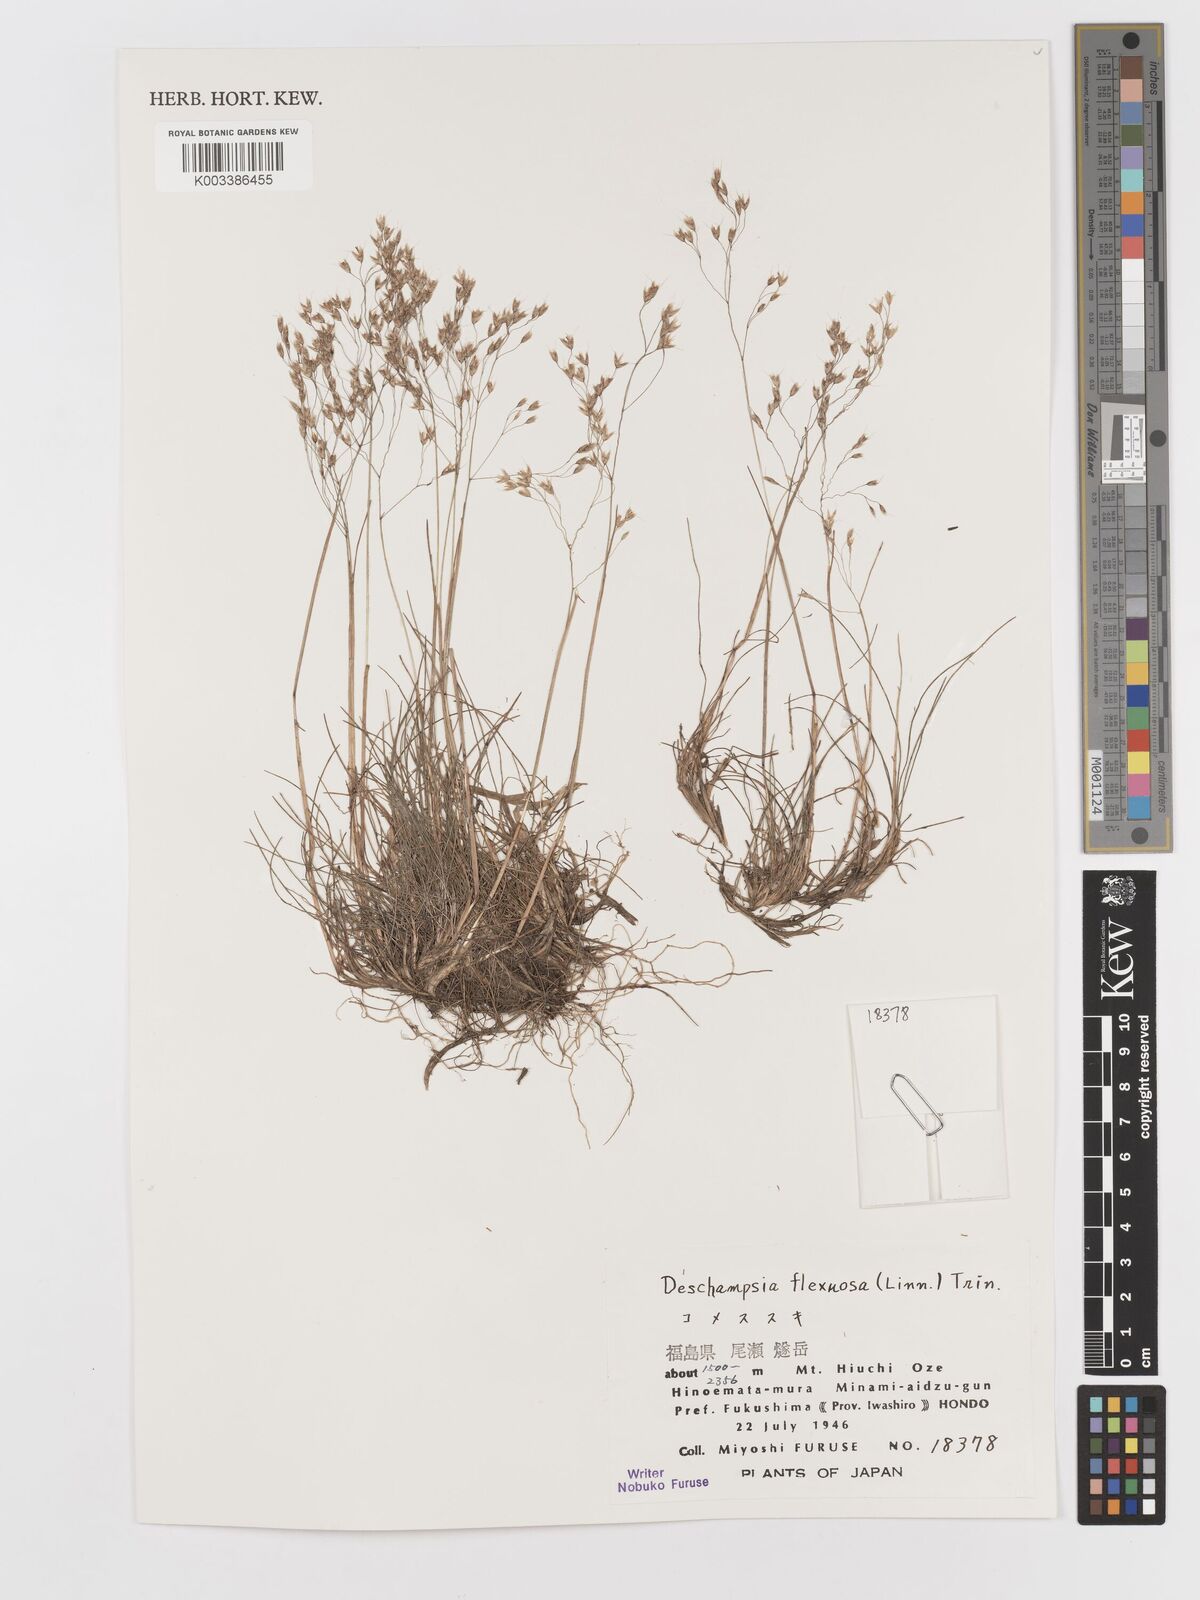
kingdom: Plantae
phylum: Tracheophyta
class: Liliopsida
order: Poales
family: Poaceae
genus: Avenella
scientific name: Avenella flexuosa
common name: Wavy hairgrass
